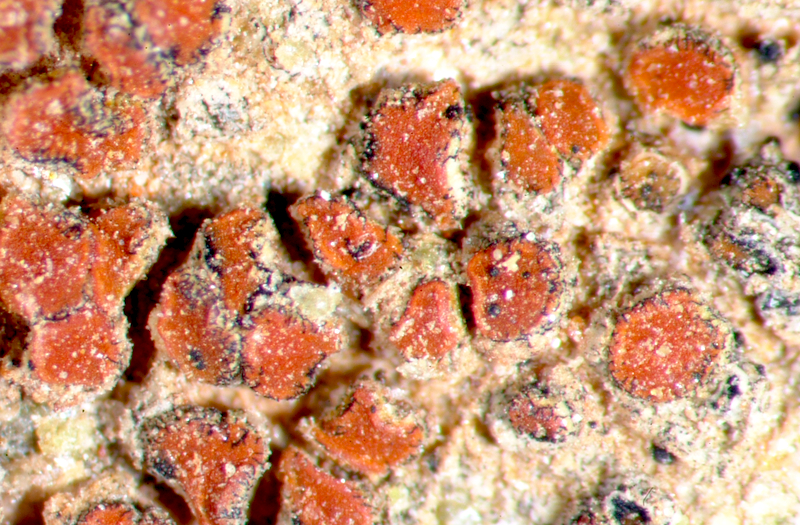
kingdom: Fungi
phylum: Ascomycota
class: Lecanoromycetes
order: Teloschistales
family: Teloschistaceae
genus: Neobrownliella
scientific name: Neobrownliella cinnabarina
